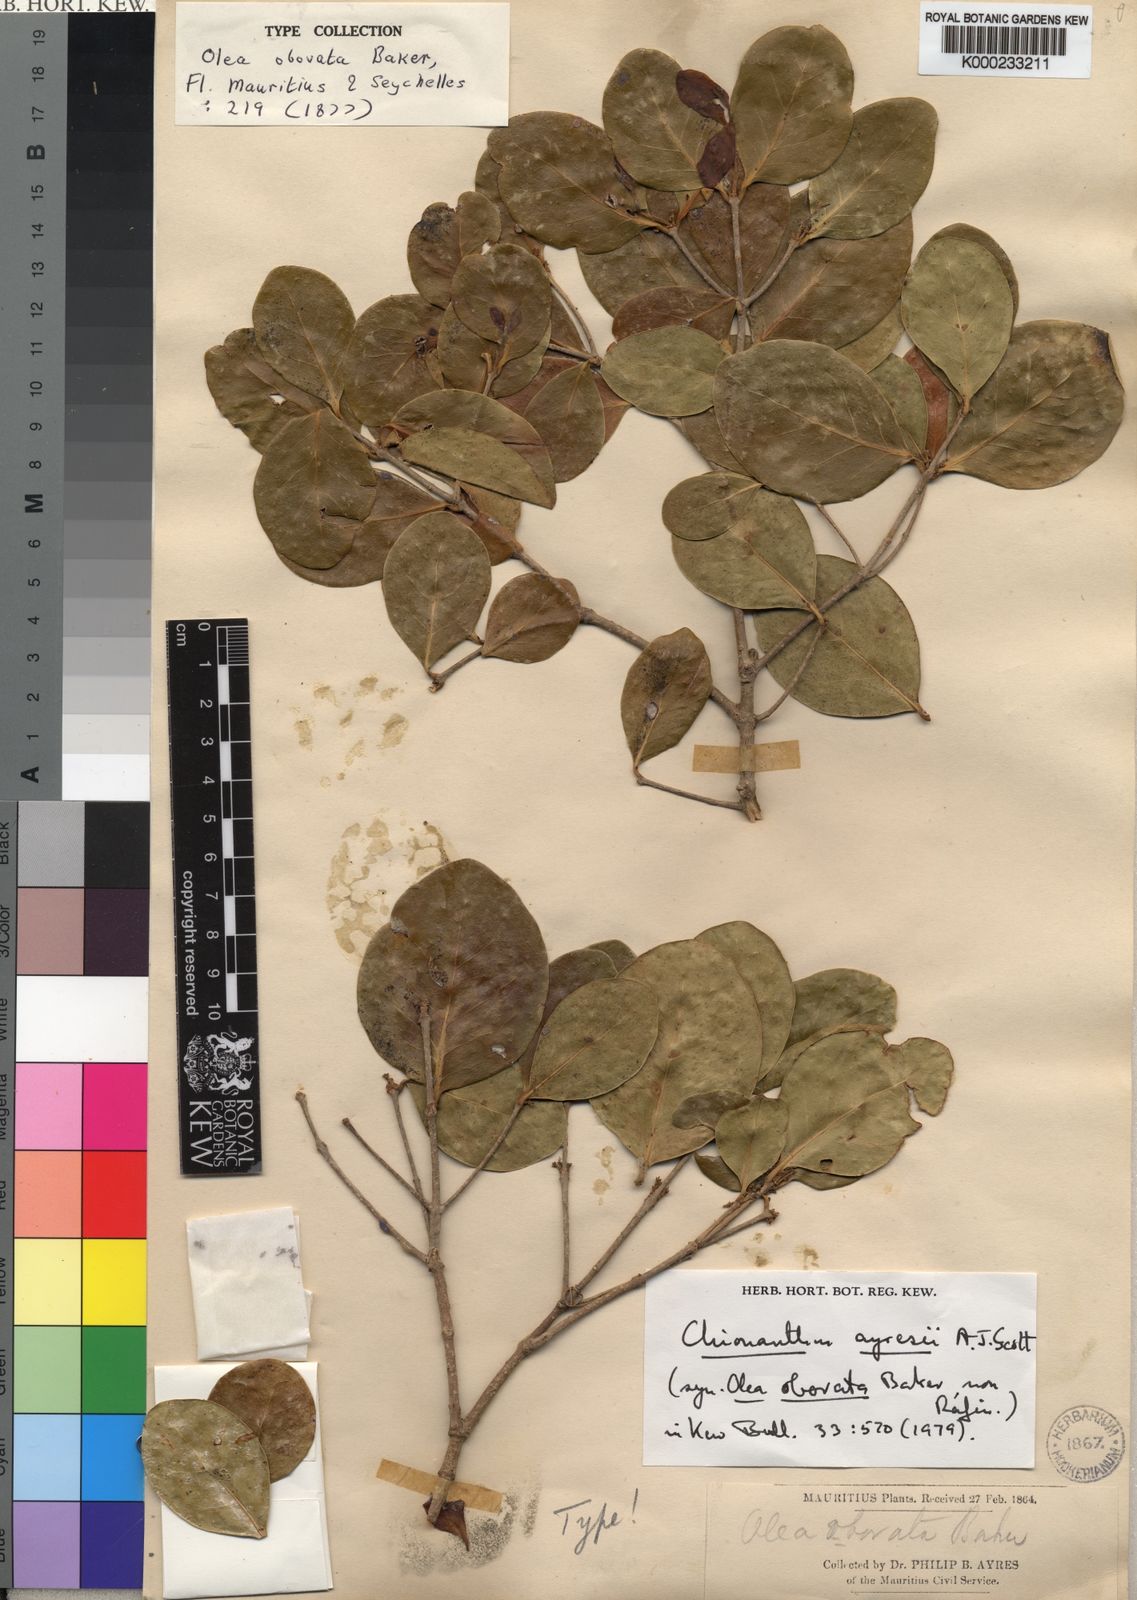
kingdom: Plantae
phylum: Tracheophyta
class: Magnoliopsida
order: Lamiales
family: Oleaceae
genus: Noronhia
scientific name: Noronhia obovata
